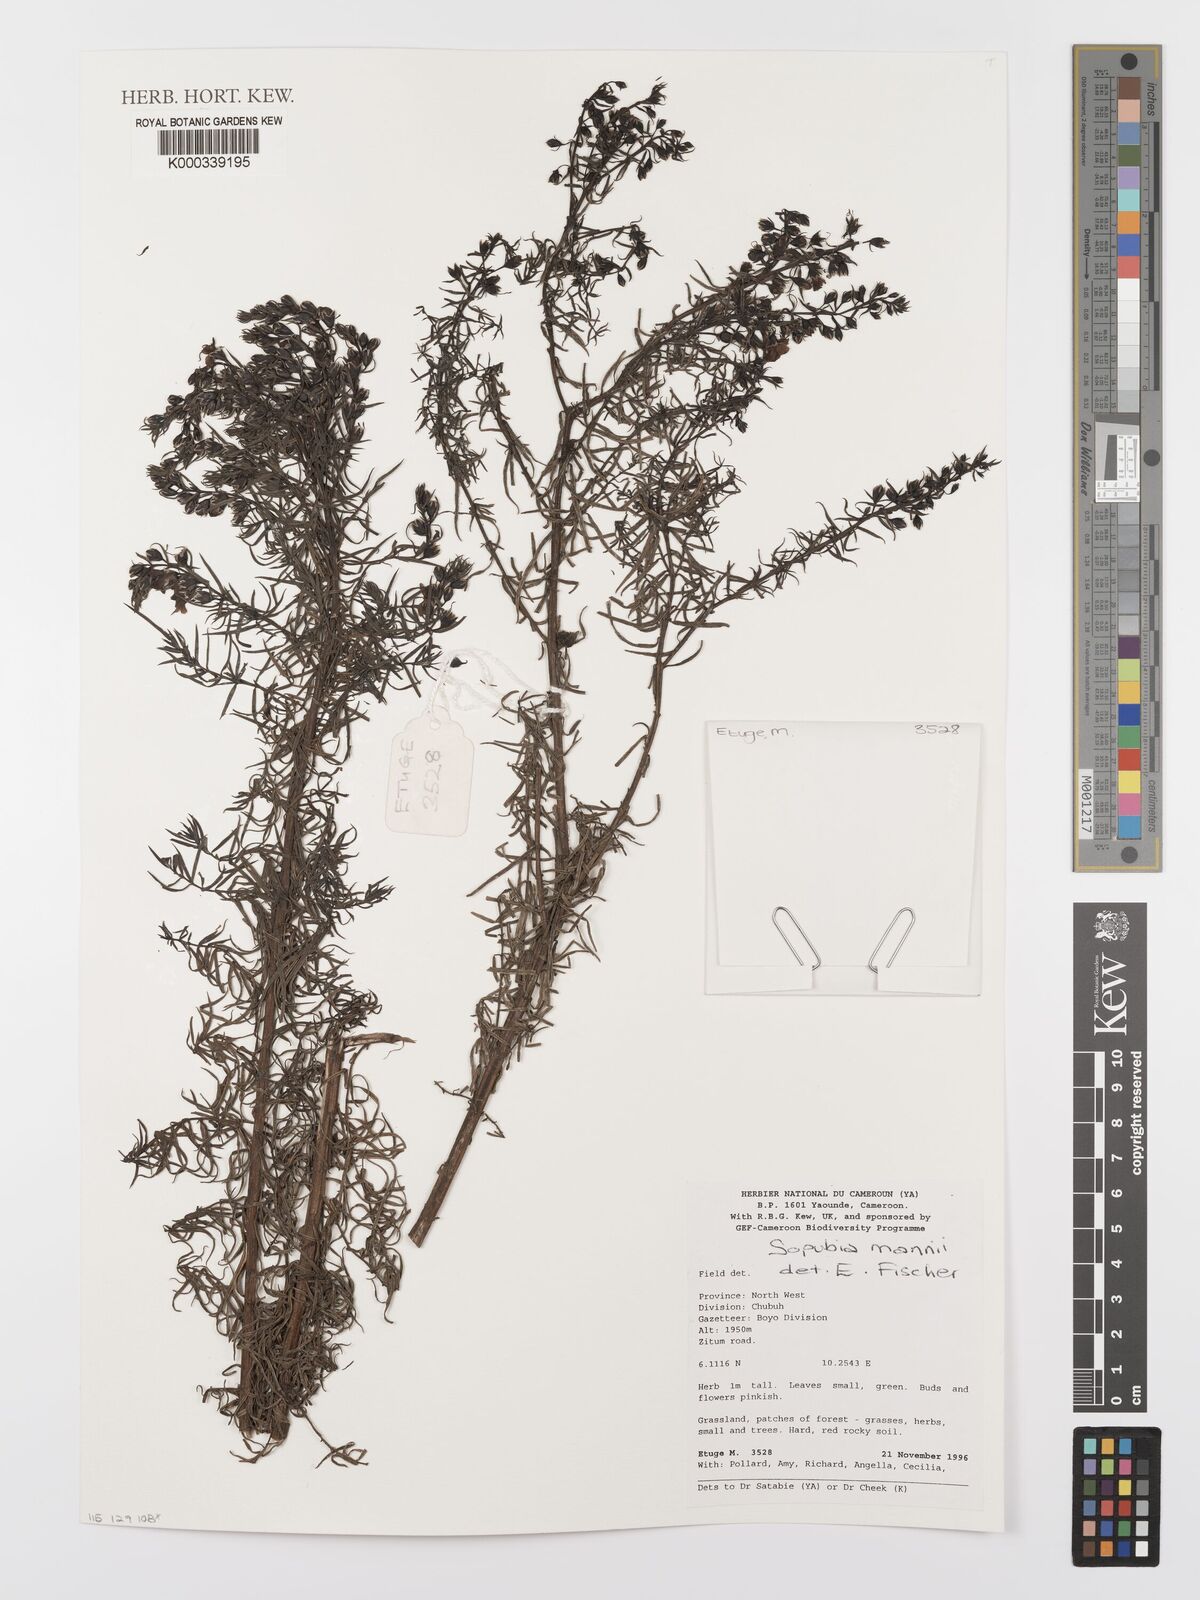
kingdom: Plantae
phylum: Tracheophyta
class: Magnoliopsida
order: Lamiales
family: Orobanchaceae
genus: Sopubia
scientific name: Sopubia mannii
